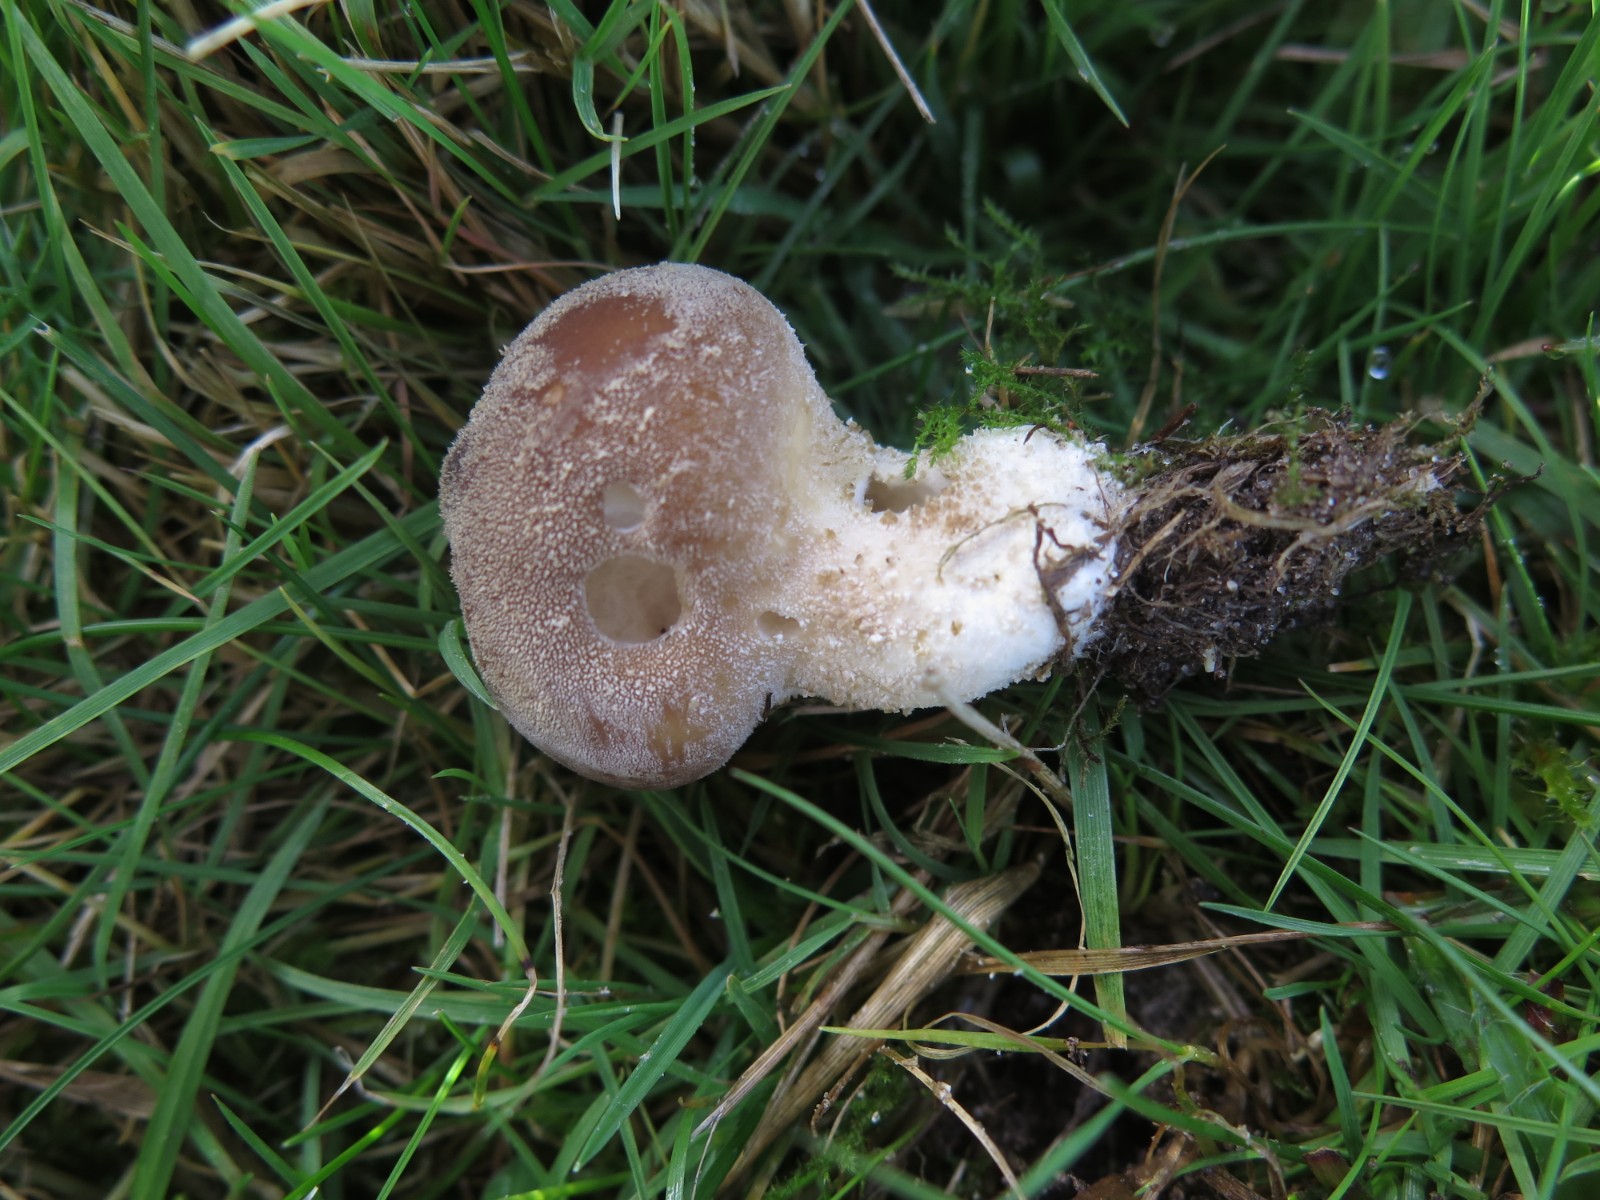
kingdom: Fungi
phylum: Basidiomycota
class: Agaricomycetes
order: Agaricales
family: Agaricaceae
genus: Lycoperdon
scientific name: Lycoperdon
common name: støvbold
